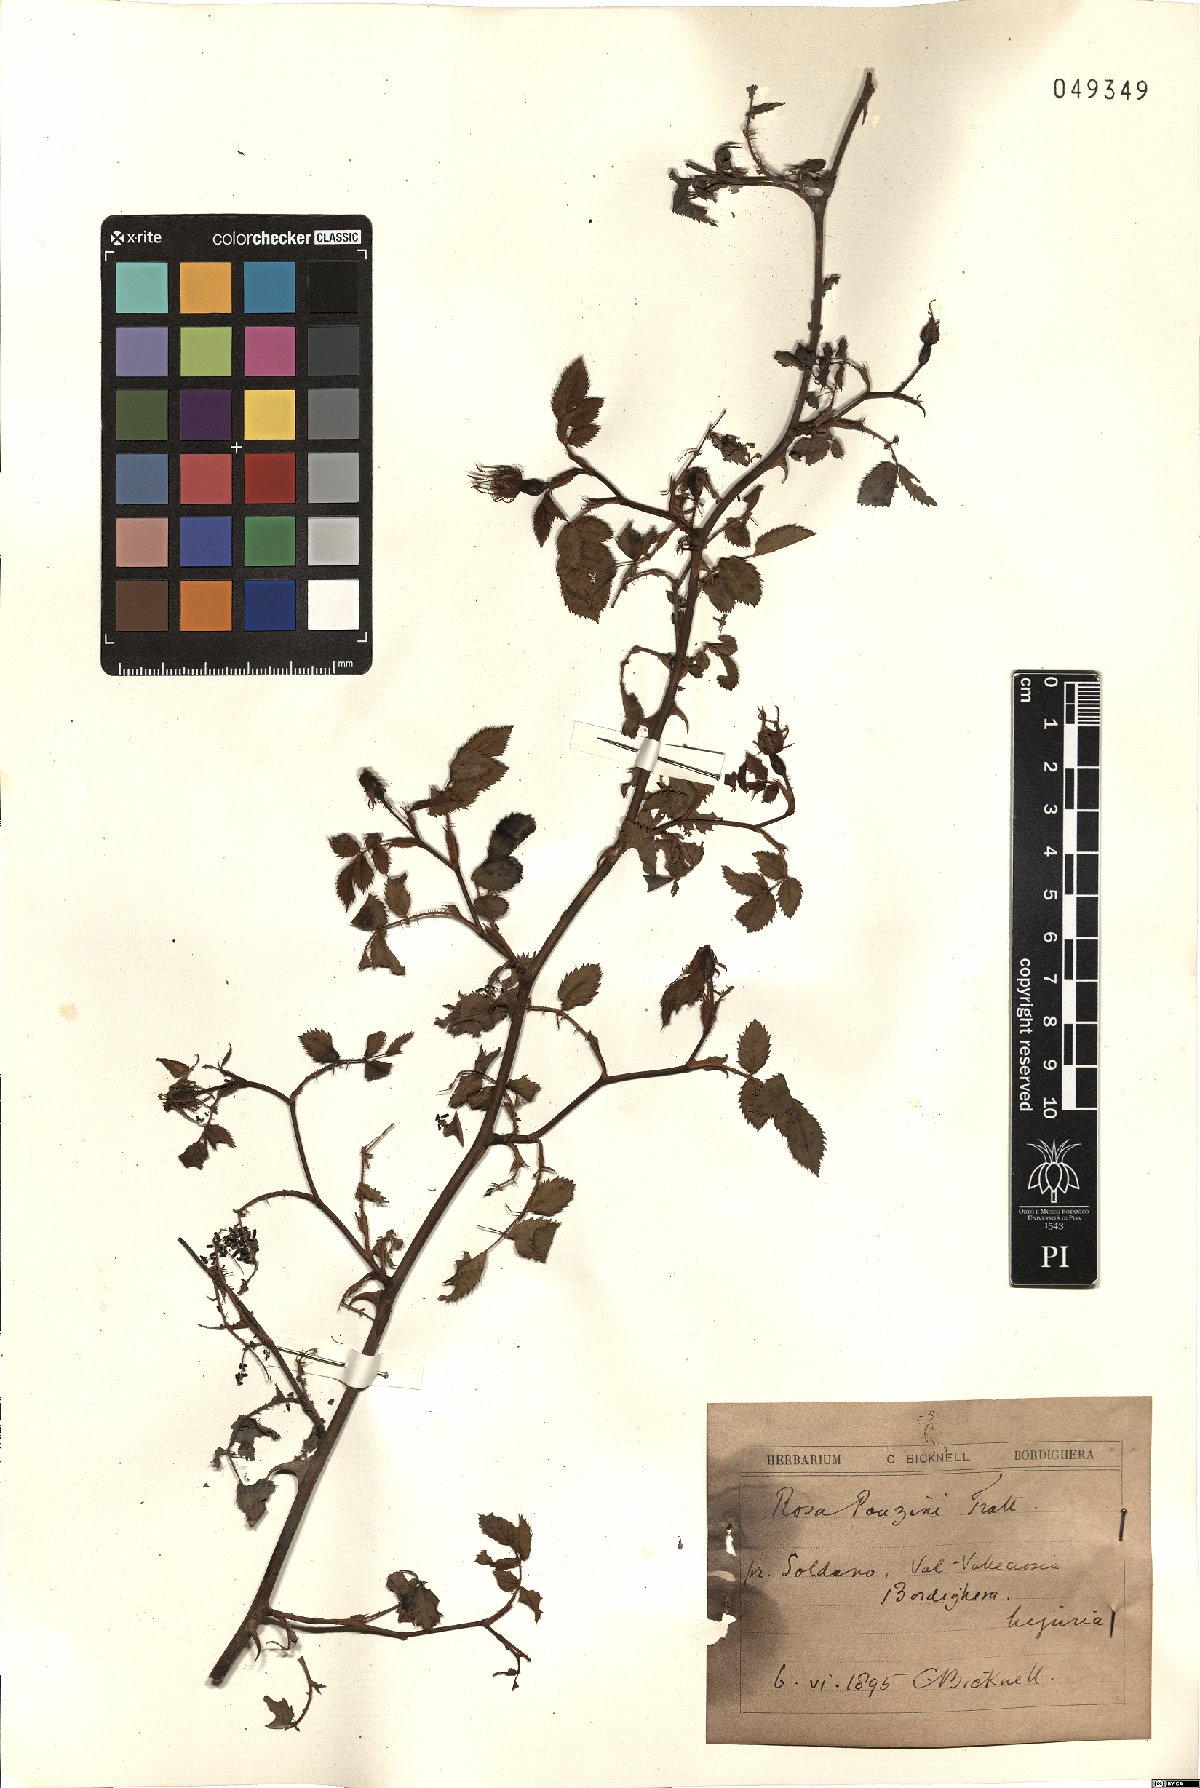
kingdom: Plantae
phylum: Tracheophyta
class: Magnoliopsida
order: Rosales
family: Rosaceae
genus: Rosa
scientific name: Rosa pouzinii
